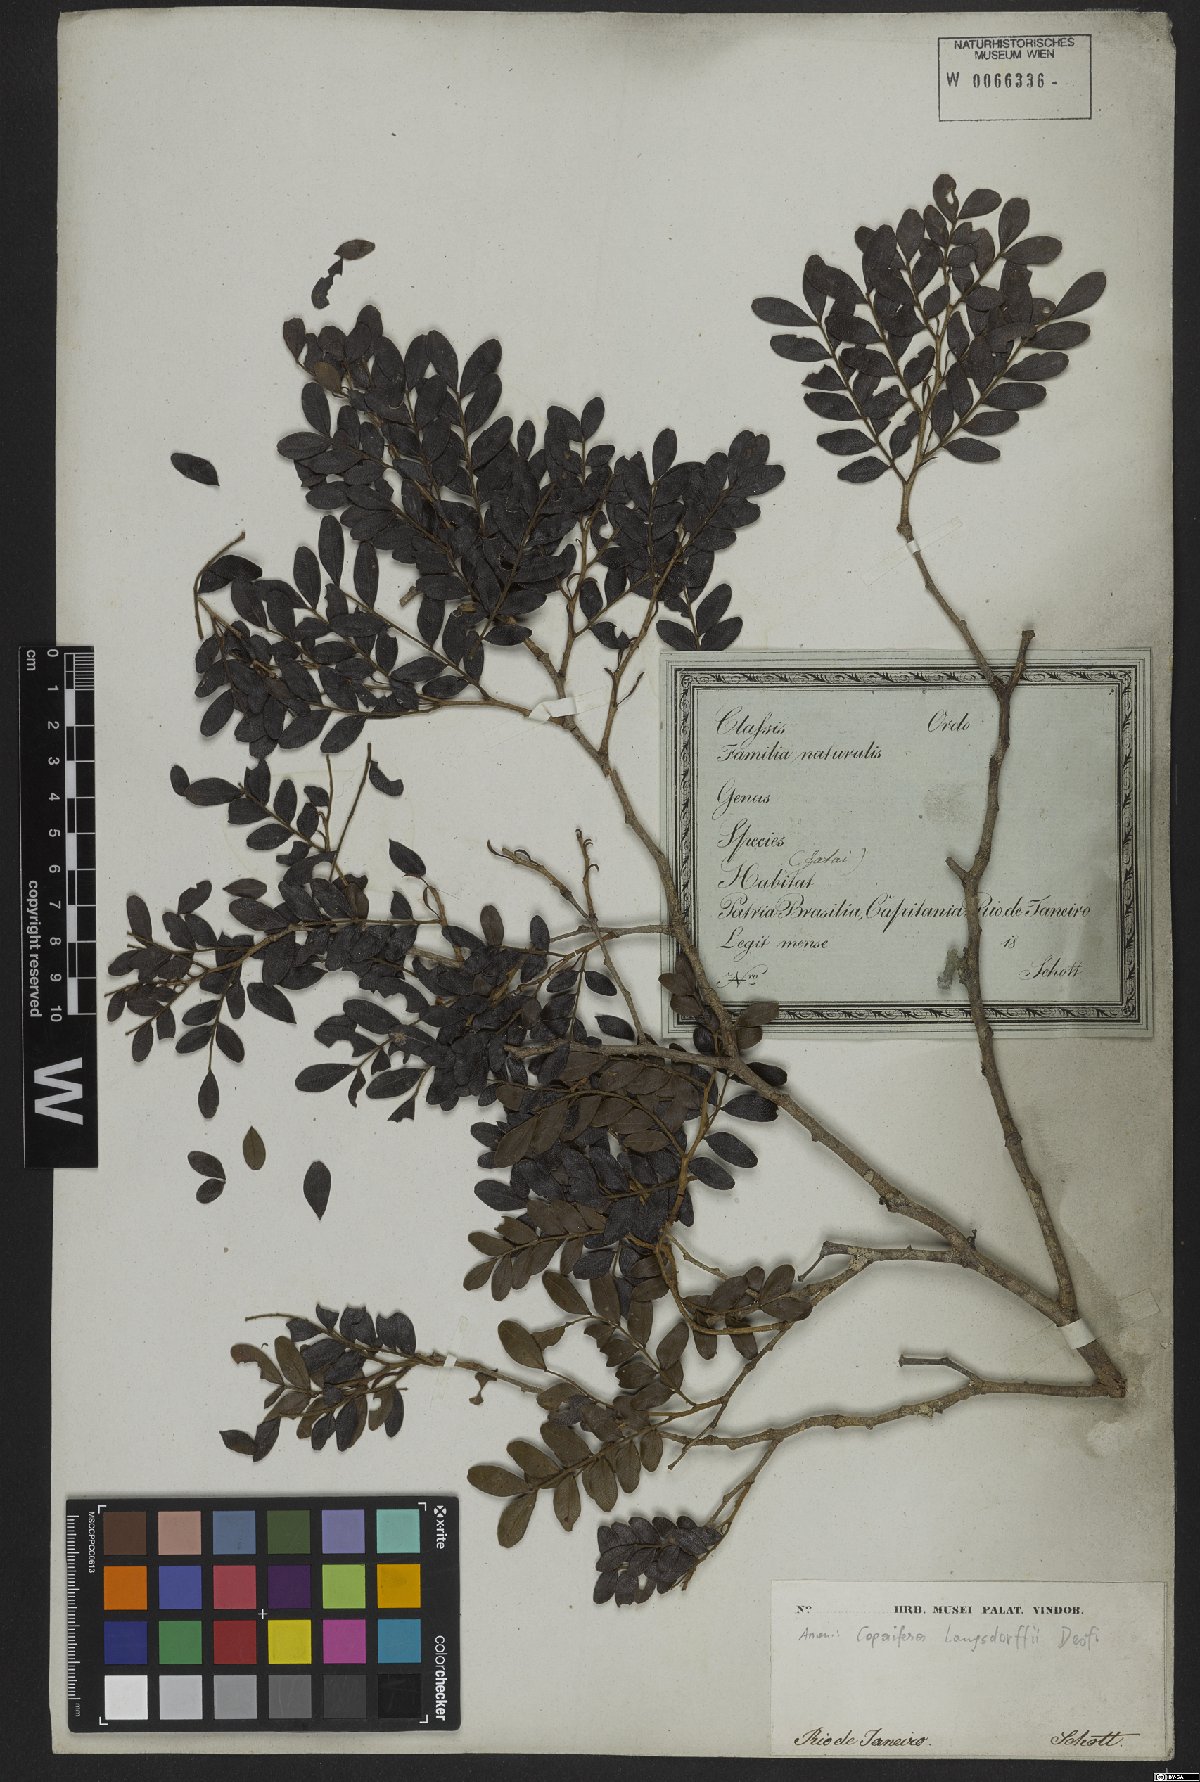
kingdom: Plantae
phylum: Tracheophyta
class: Magnoliopsida
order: Fabales
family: Fabaceae
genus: Copaifera
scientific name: Copaifera langsdorffii
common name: Brazilian diesel tree
